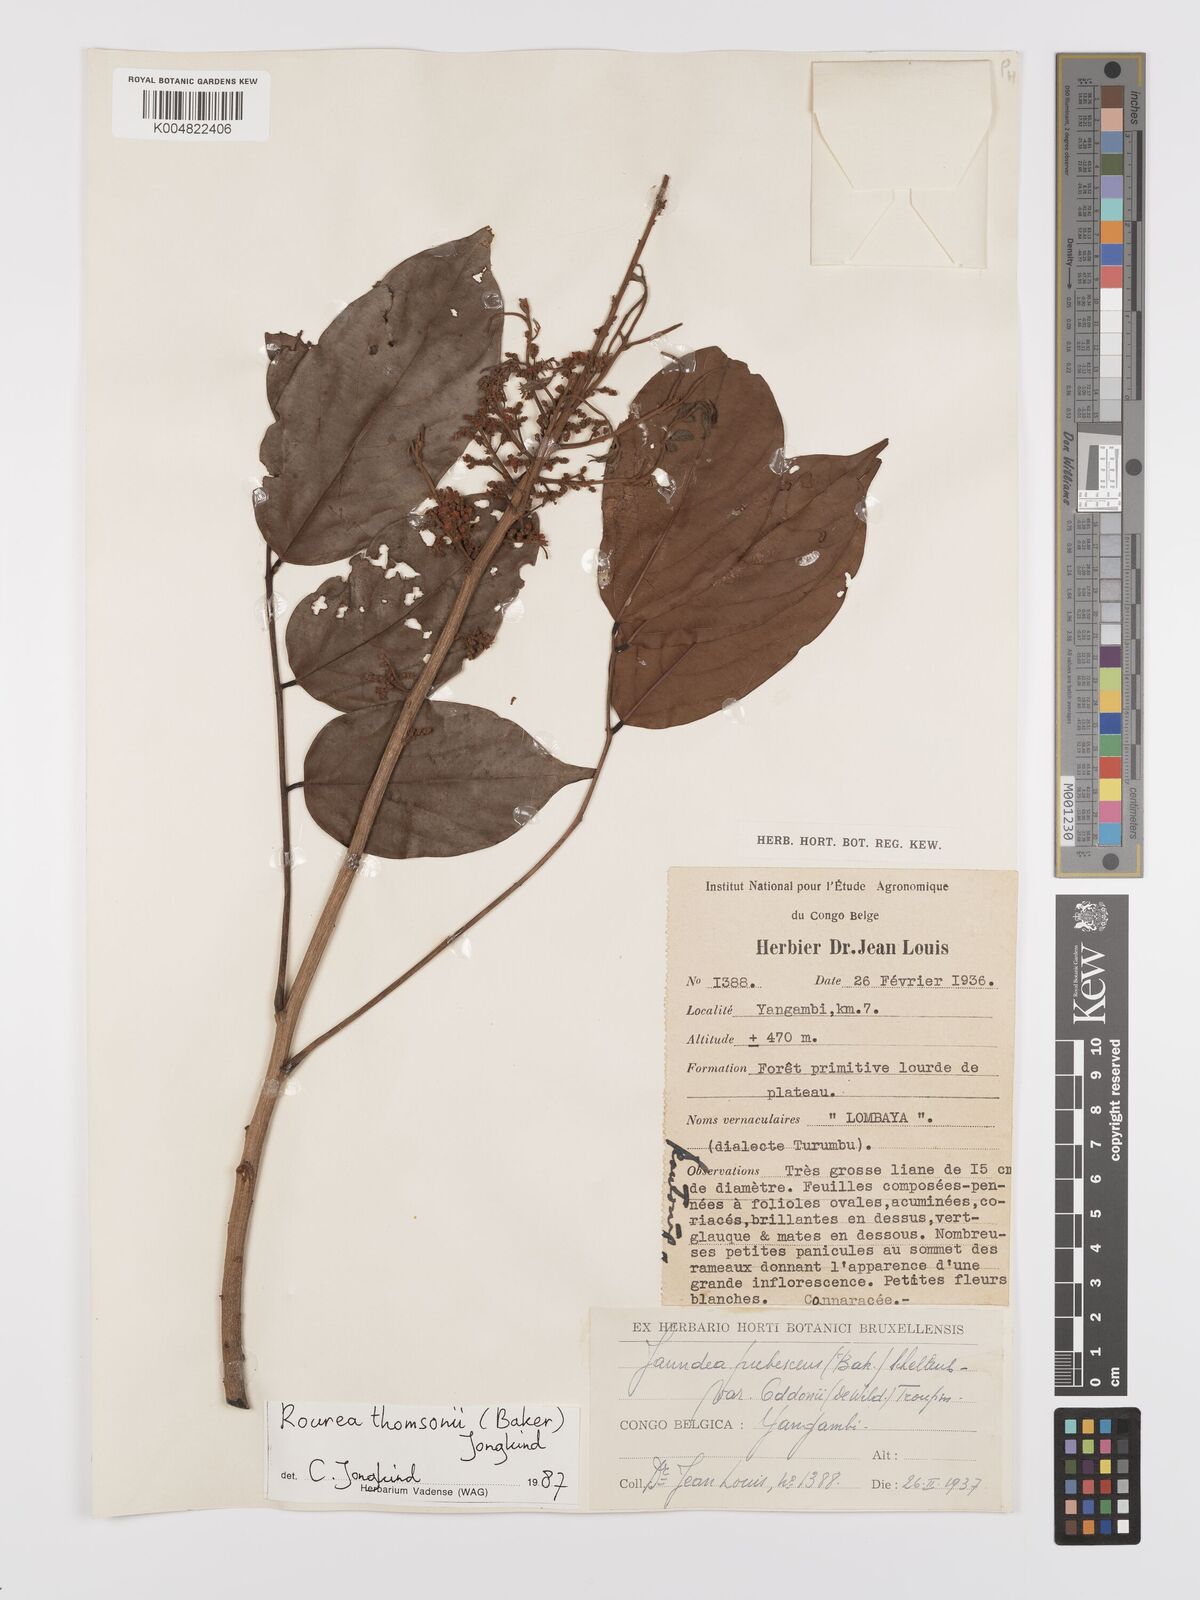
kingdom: Plantae
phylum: Tracheophyta
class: Magnoliopsida
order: Oxalidales
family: Connaraceae
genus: Rourea
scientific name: Rourea pubescens
